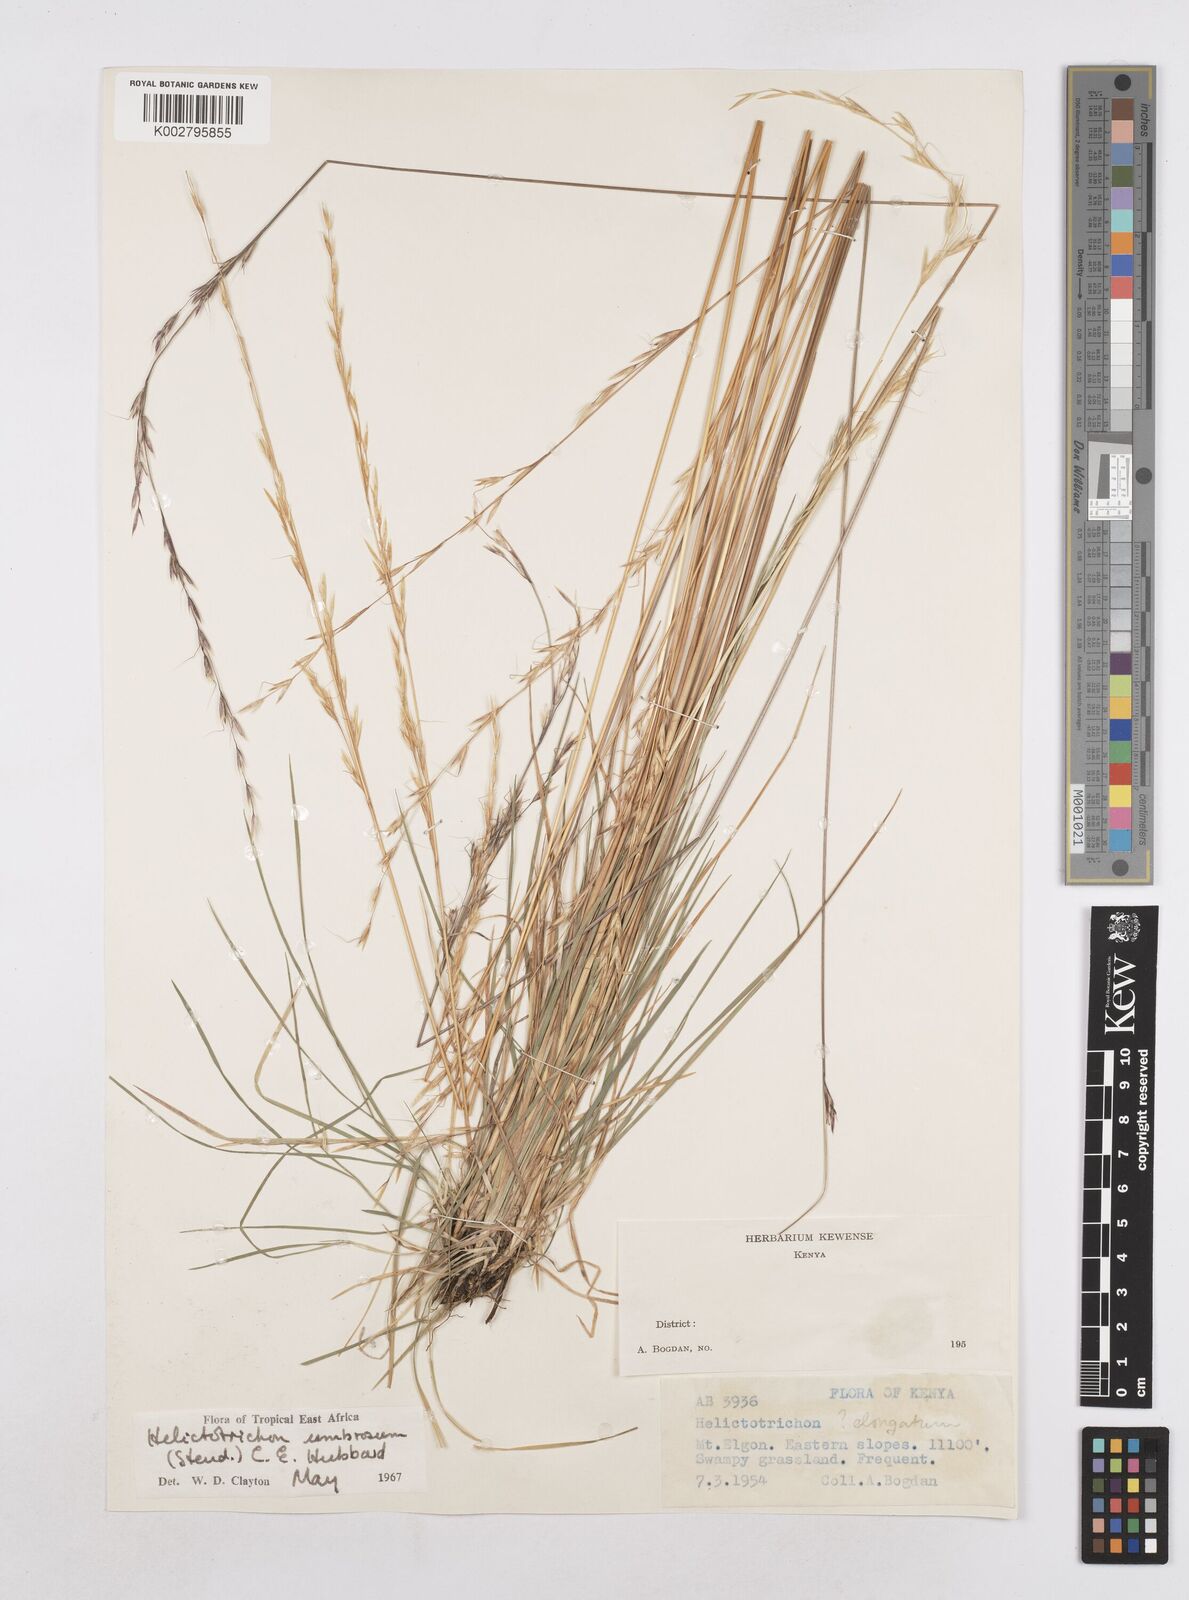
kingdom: Plantae
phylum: Tracheophyta
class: Liliopsida
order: Poales
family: Poaceae
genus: Trisetopsis
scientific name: Trisetopsis umbrosa
